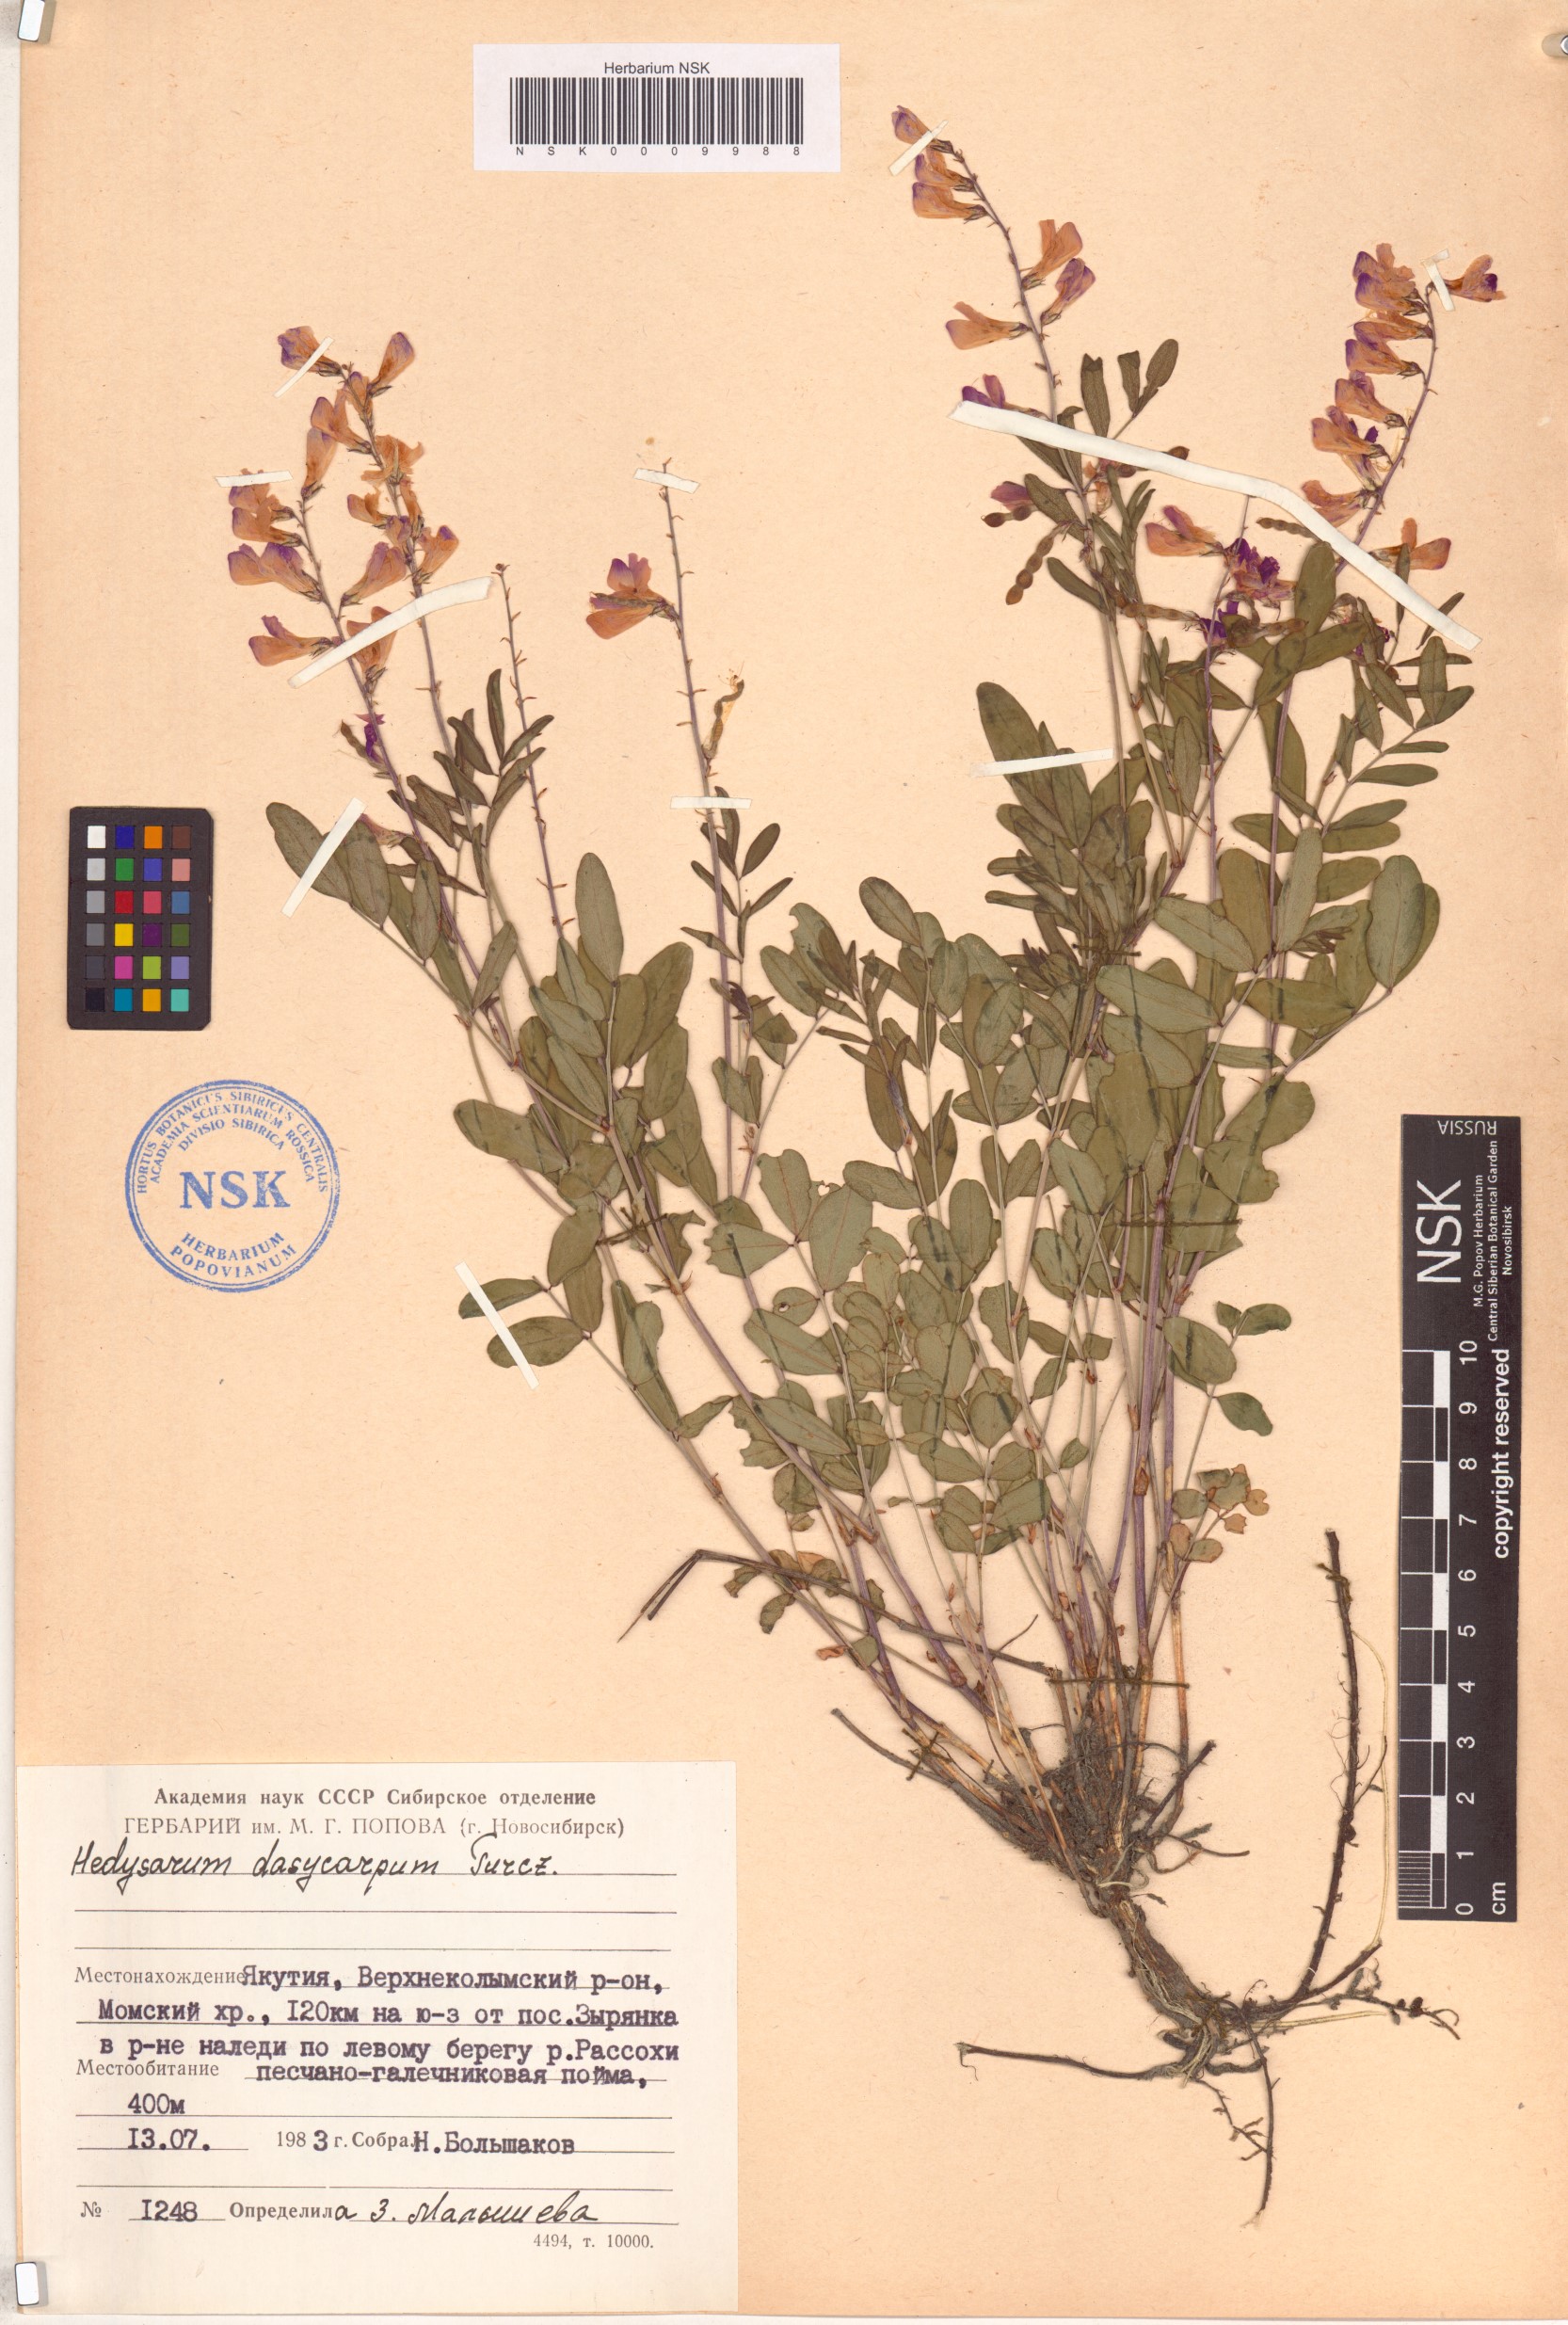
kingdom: Plantae
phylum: Tracheophyta
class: Magnoliopsida
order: Fabales
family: Fabaceae
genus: Hedysarum
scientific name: Hedysarum dasycarpum
